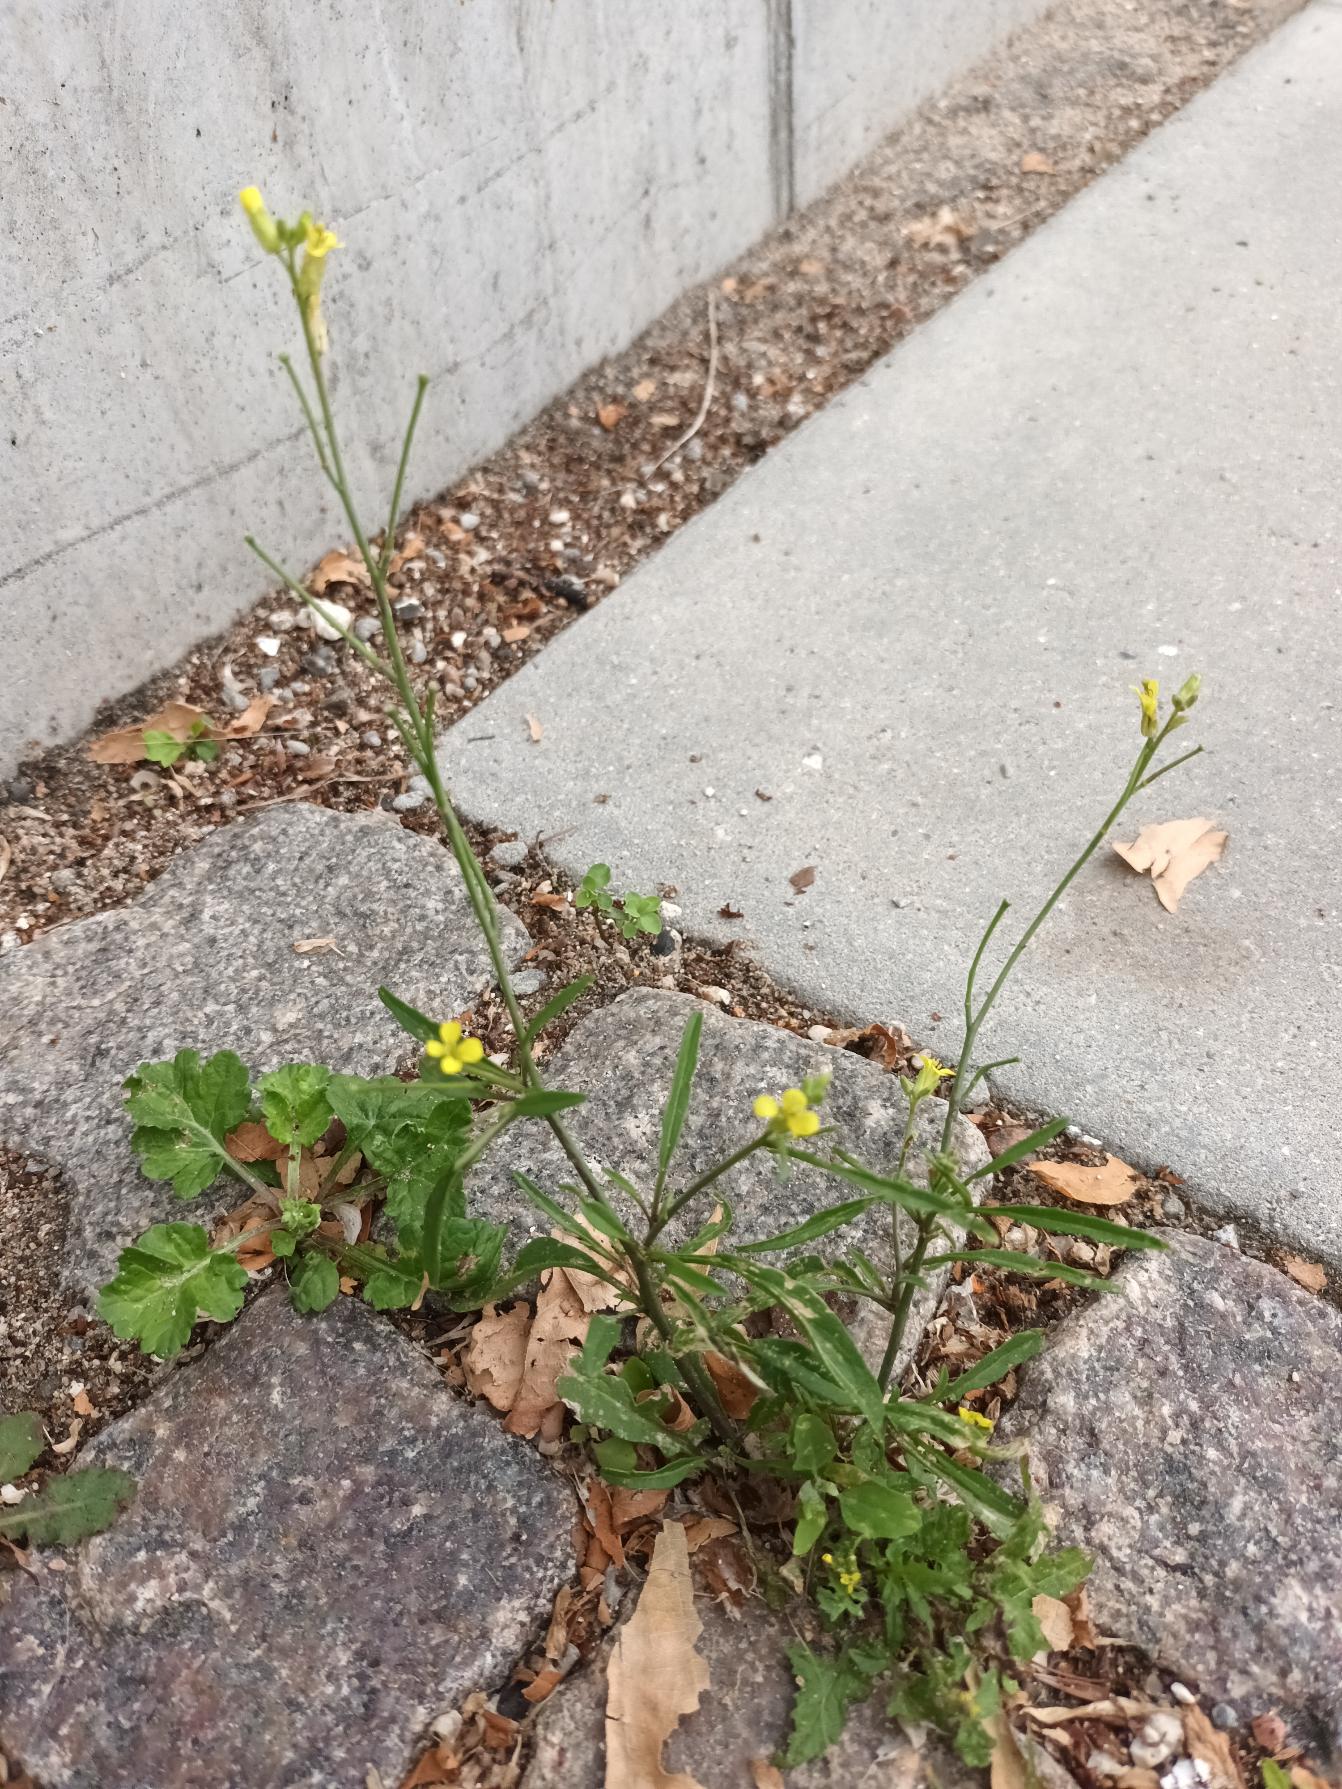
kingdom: Plantae
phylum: Tracheophyta
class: Magnoliopsida
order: Brassicales
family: Brassicaceae
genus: Erysimum
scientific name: Erysimum cheiranthoides
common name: Gyldenlak-hjørneklap
